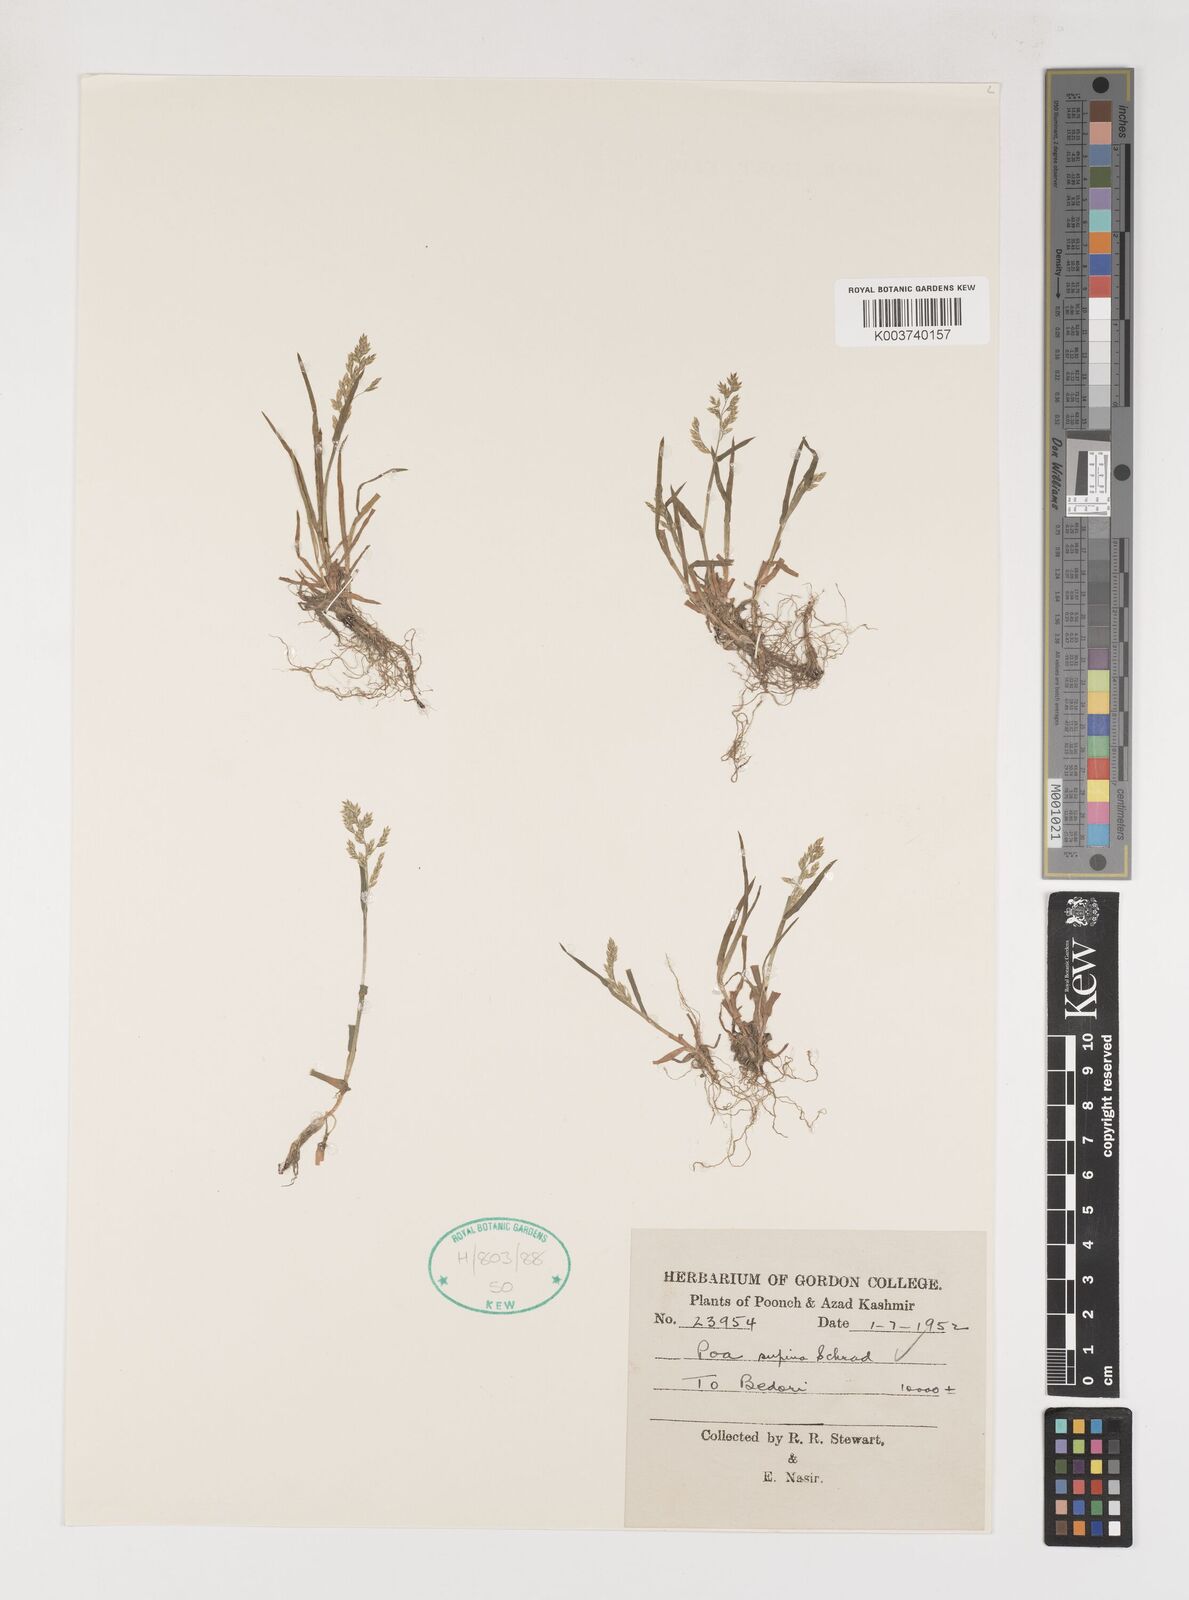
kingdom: Plantae
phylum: Tracheophyta
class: Liliopsida
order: Poales
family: Poaceae
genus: Poa
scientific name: Poa supina
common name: Supina bluegrass
